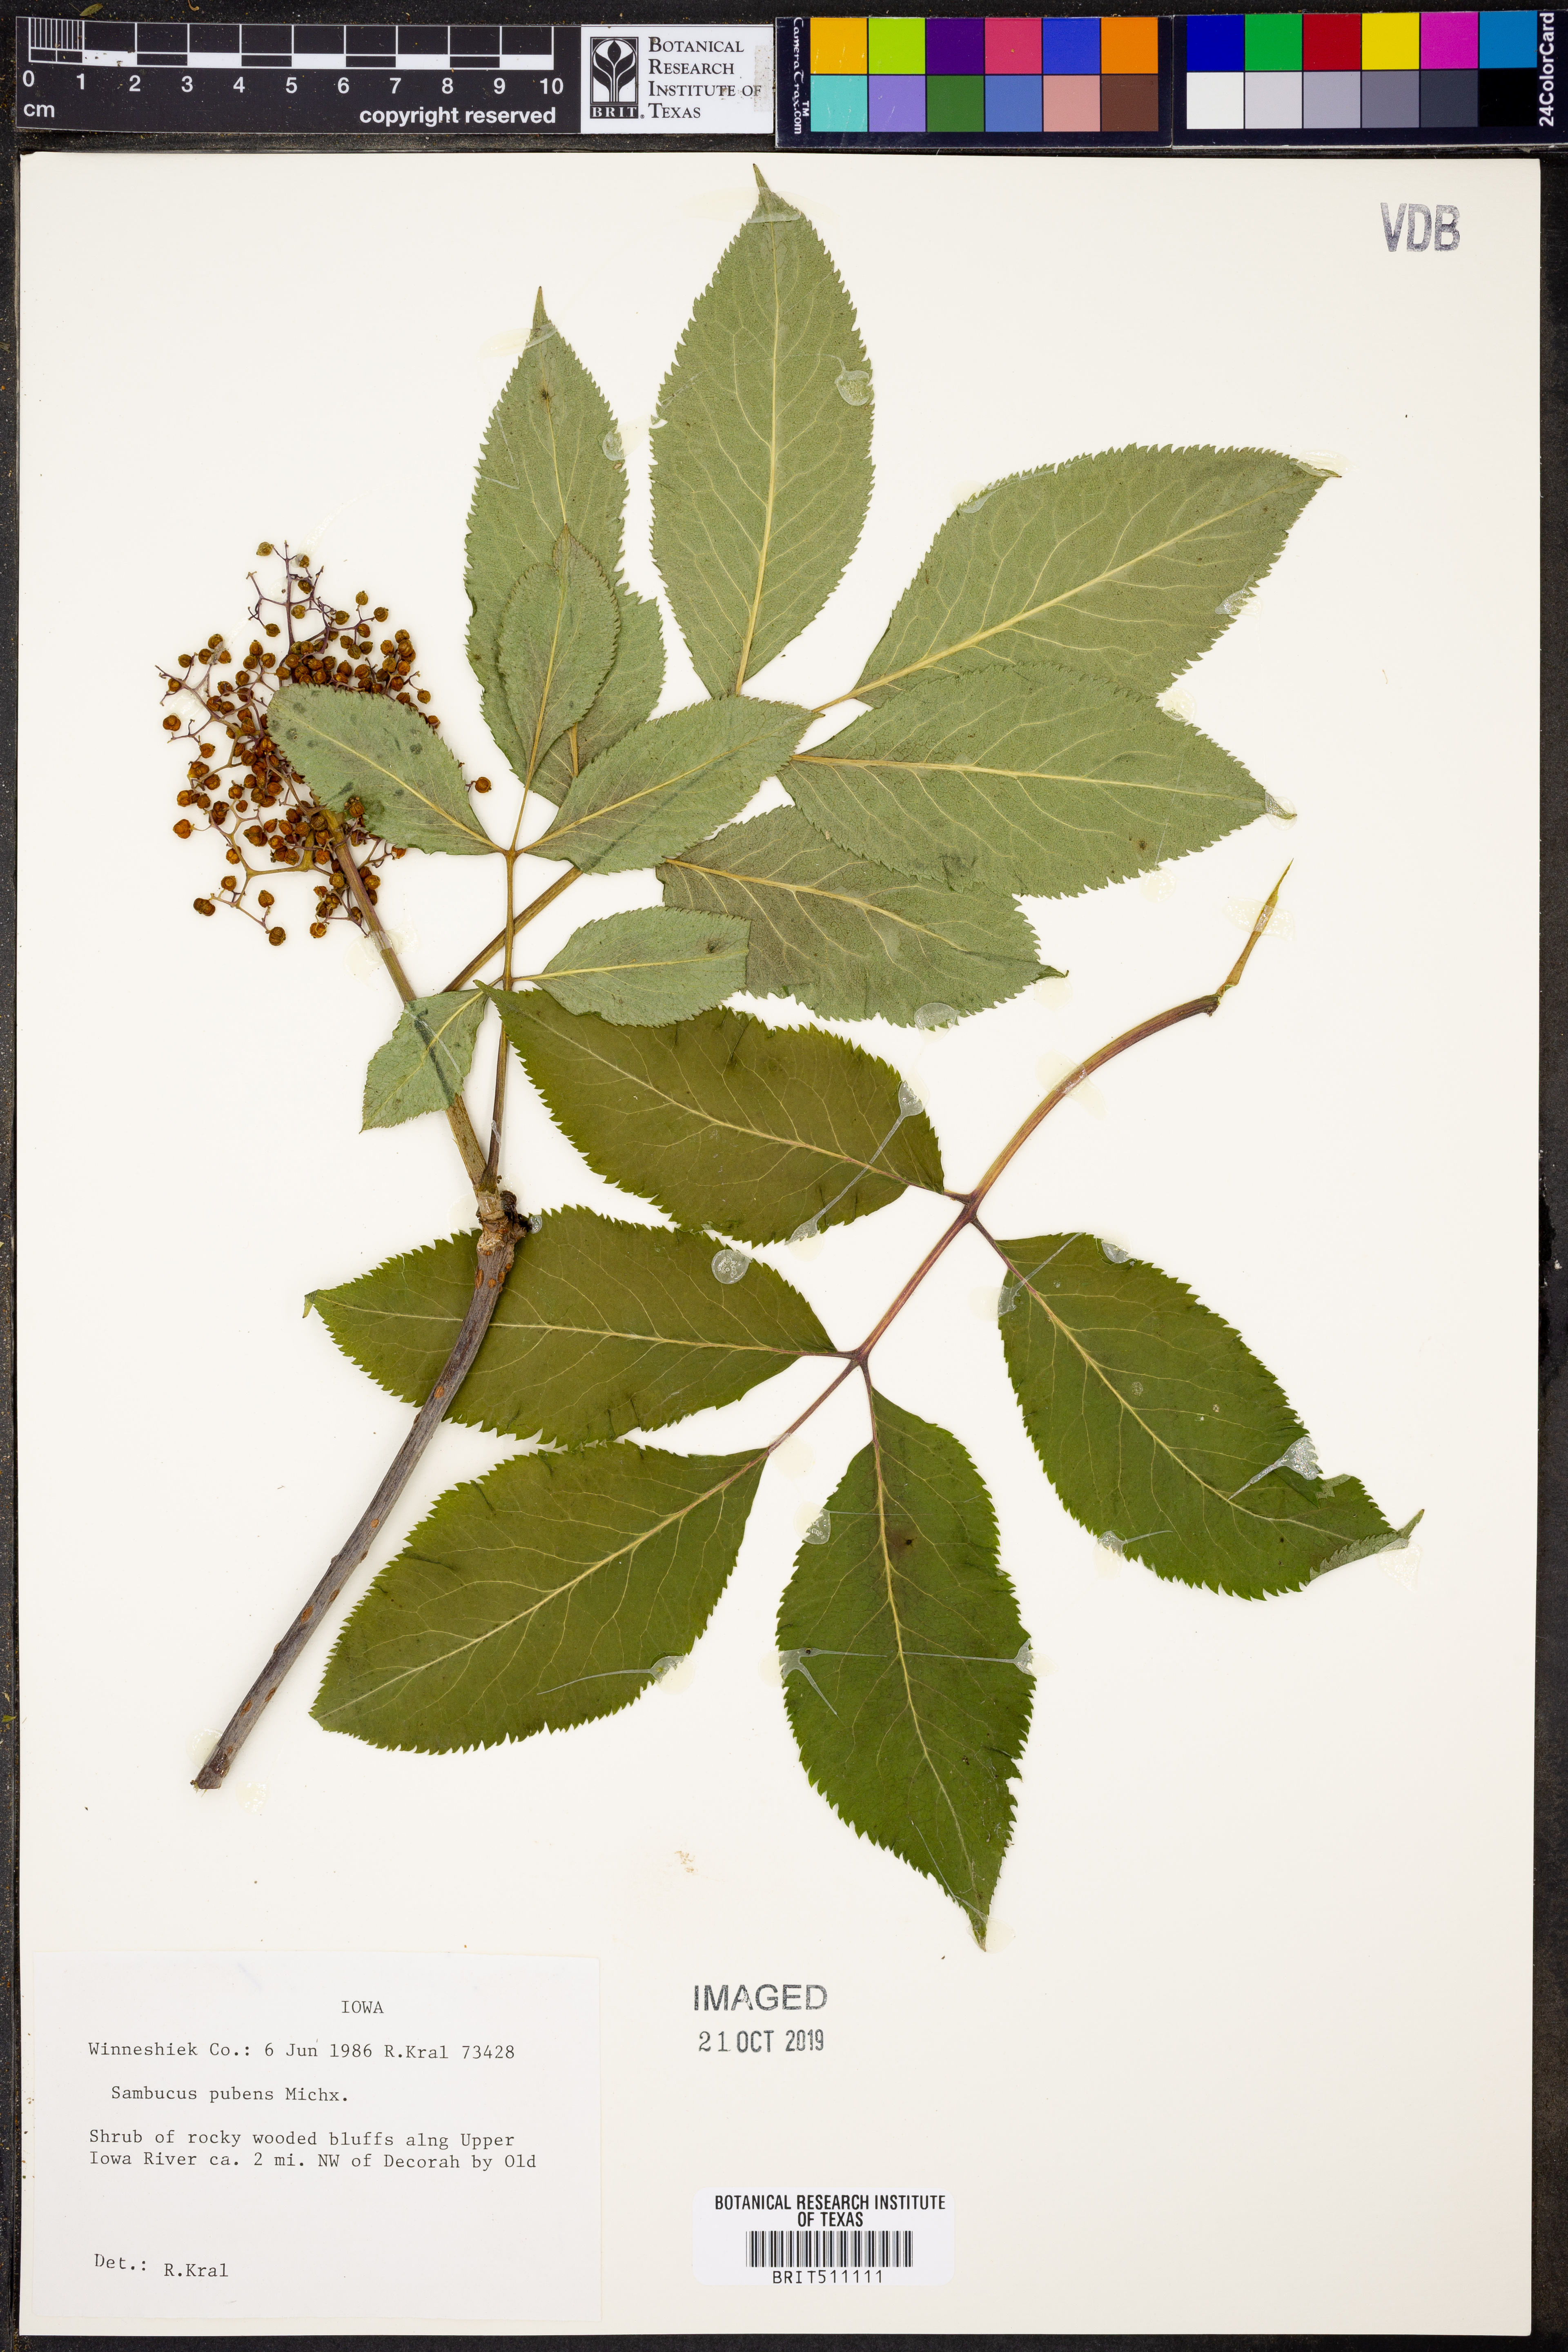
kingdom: Plantae
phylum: Tracheophyta
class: Magnoliopsida
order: Dipsacales
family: Viburnaceae
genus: Sambucus
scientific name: Sambucus racemosa
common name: Red-berried elder
